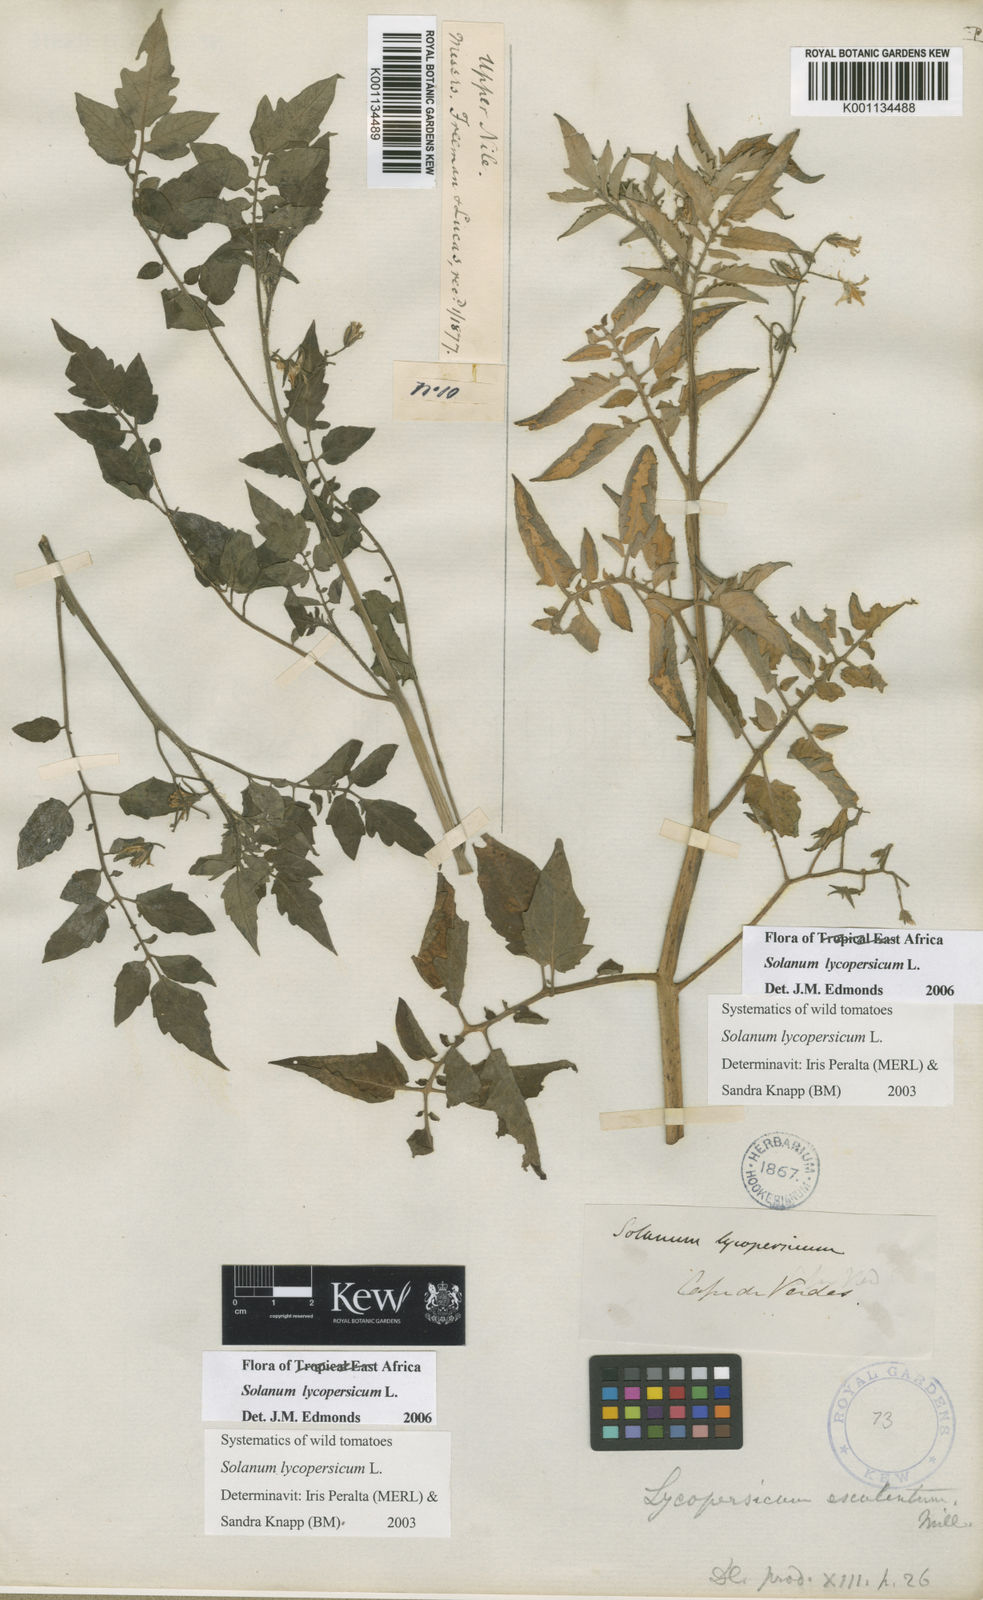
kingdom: Plantae
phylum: Tracheophyta
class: Magnoliopsida
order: Solanales
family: Solanaceae
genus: Solanum
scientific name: Solanum lycopersicum
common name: Garden tomato
